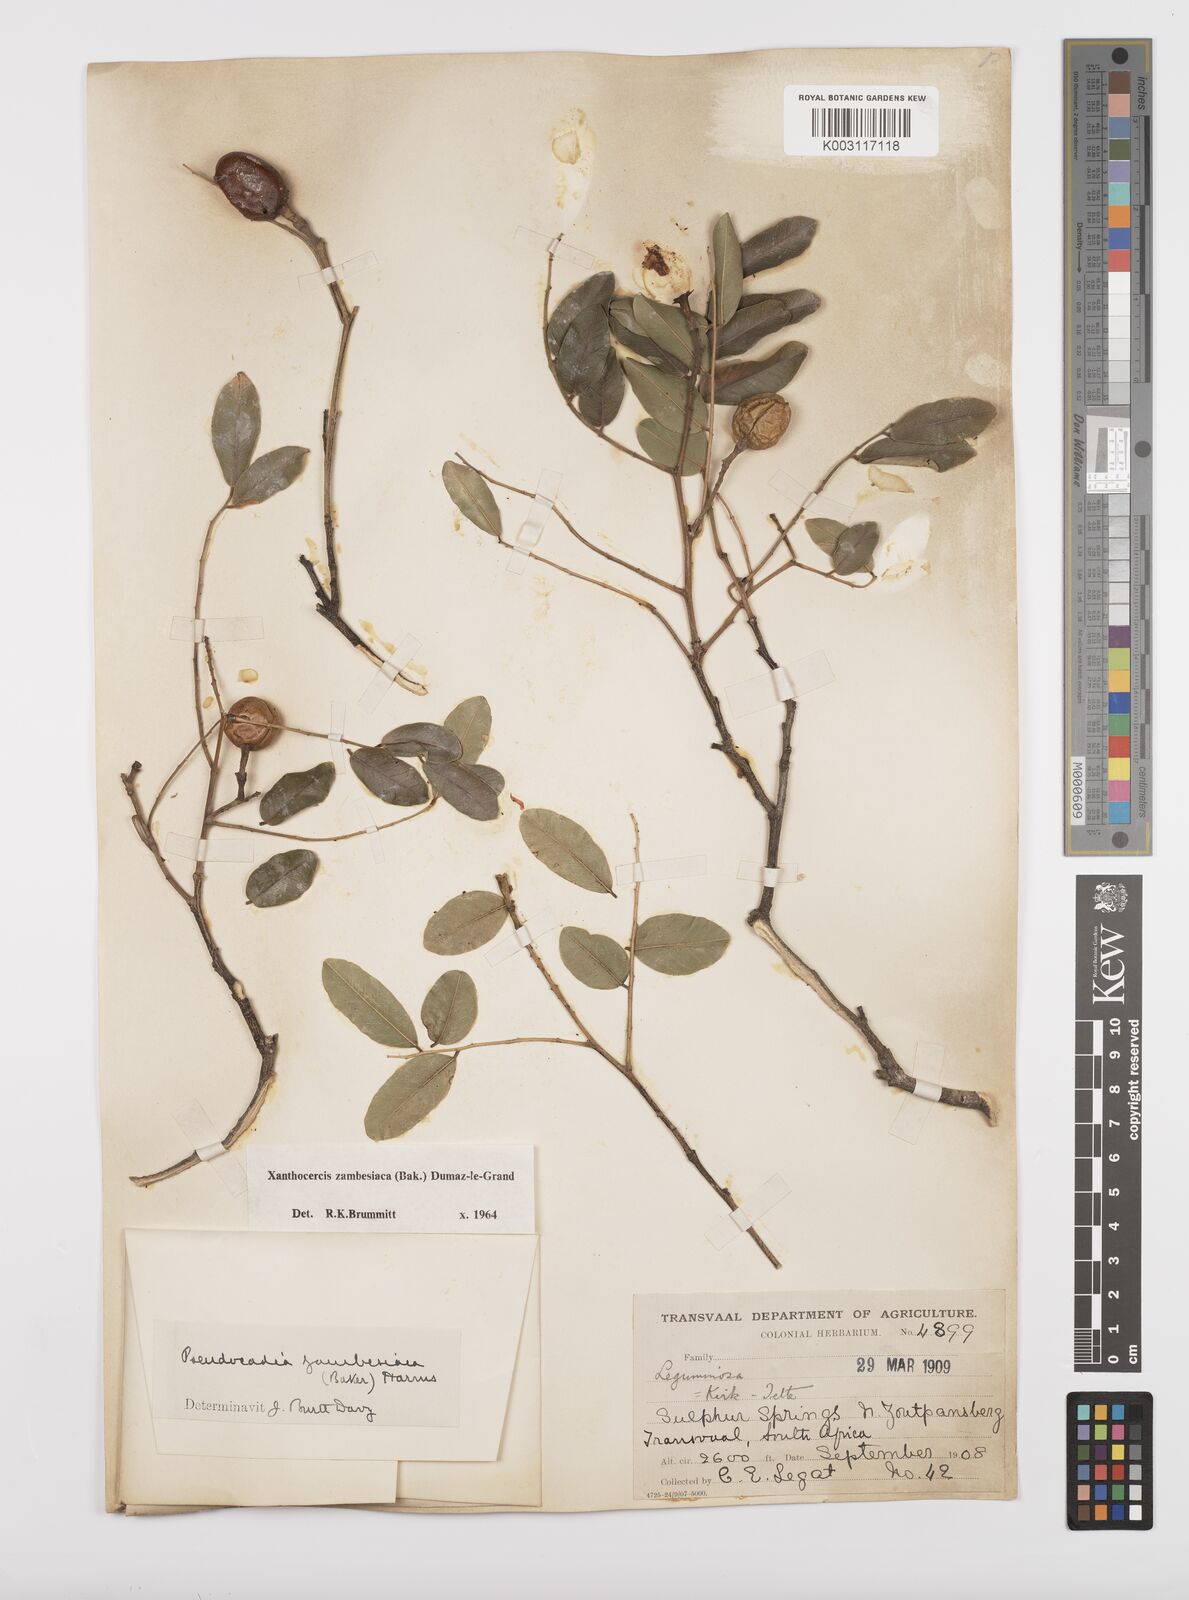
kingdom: Plantae
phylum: Tracheophyta
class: Magnoliopsida
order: Fabales
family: Fabaceae
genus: Xanthocercis
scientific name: Xanthocercis zambesiaca
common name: Nyala-tree
